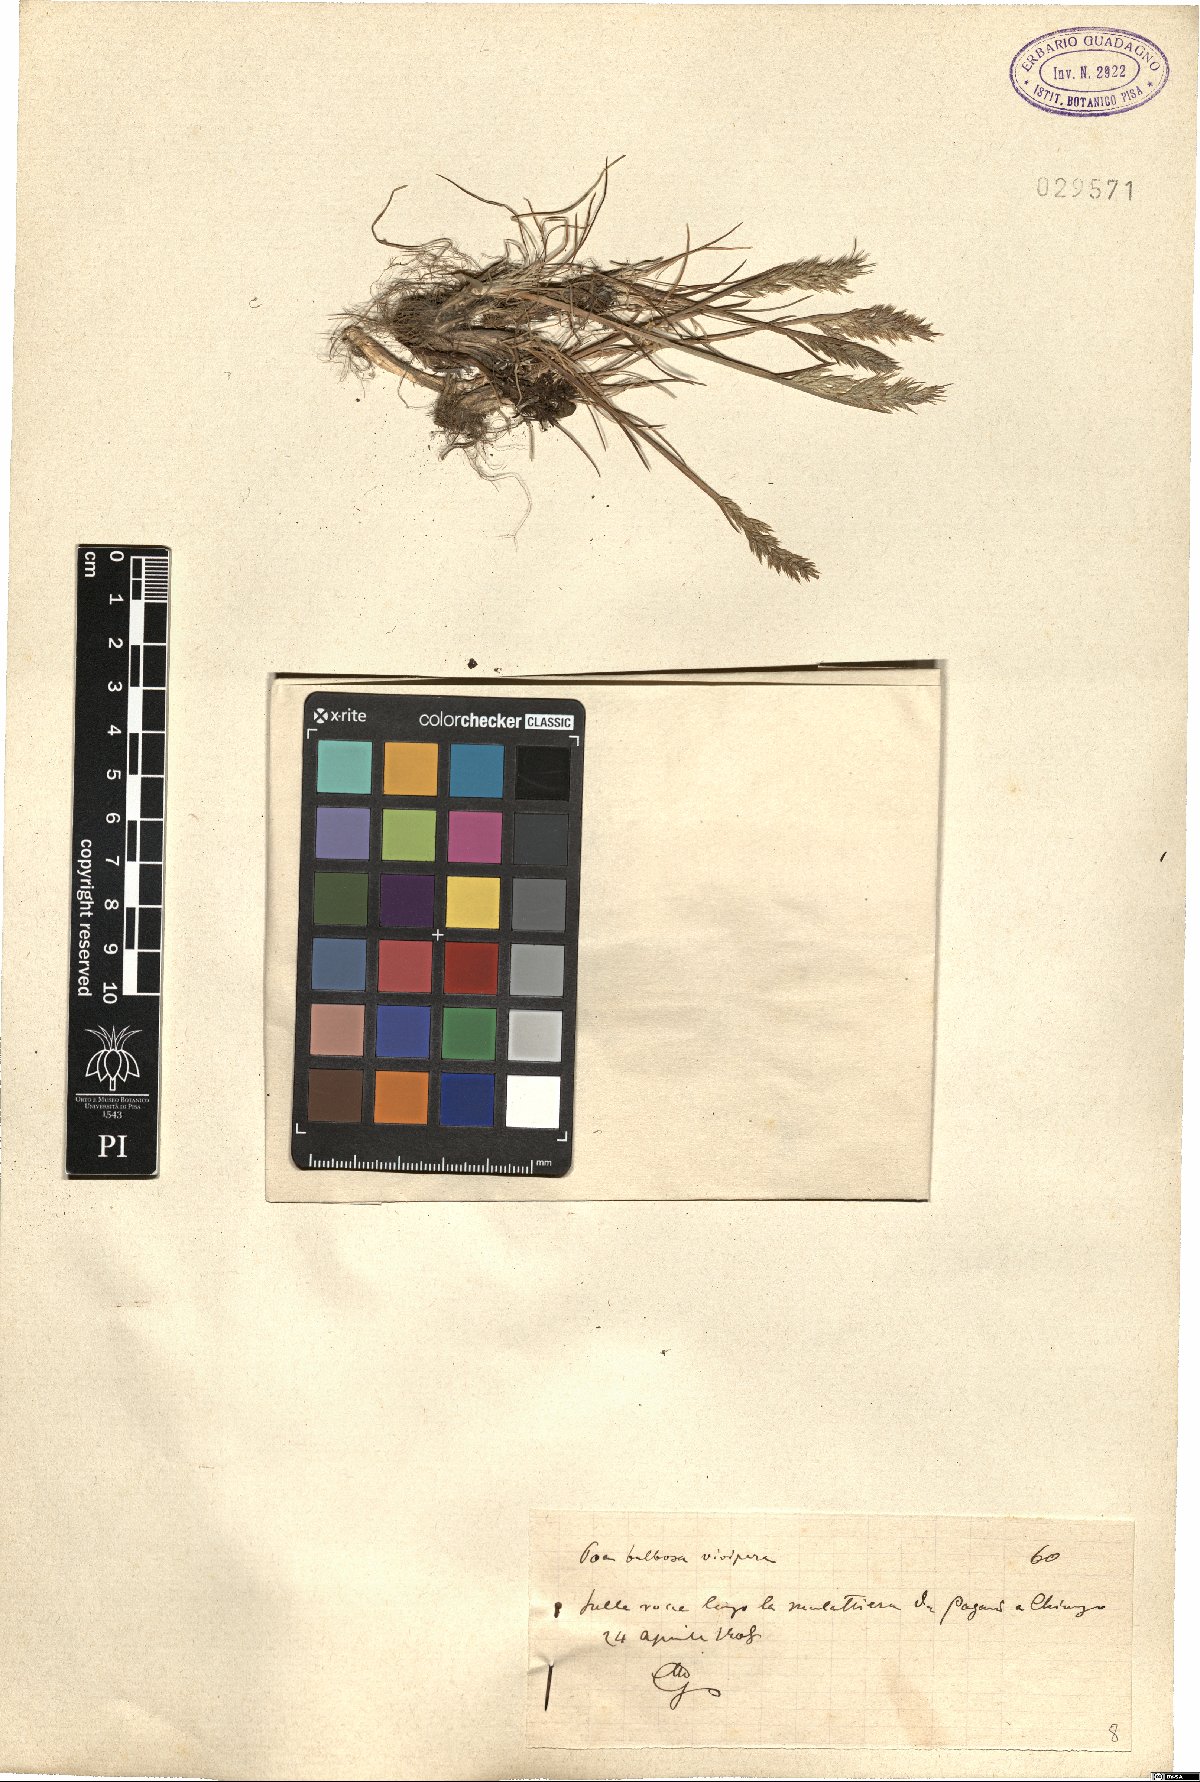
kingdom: Plantae
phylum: Tracheophyta
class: Liliopsida
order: Poales
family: Poaceae
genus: Poa
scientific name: Poa bulbosa
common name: Bulbous bluegrass
